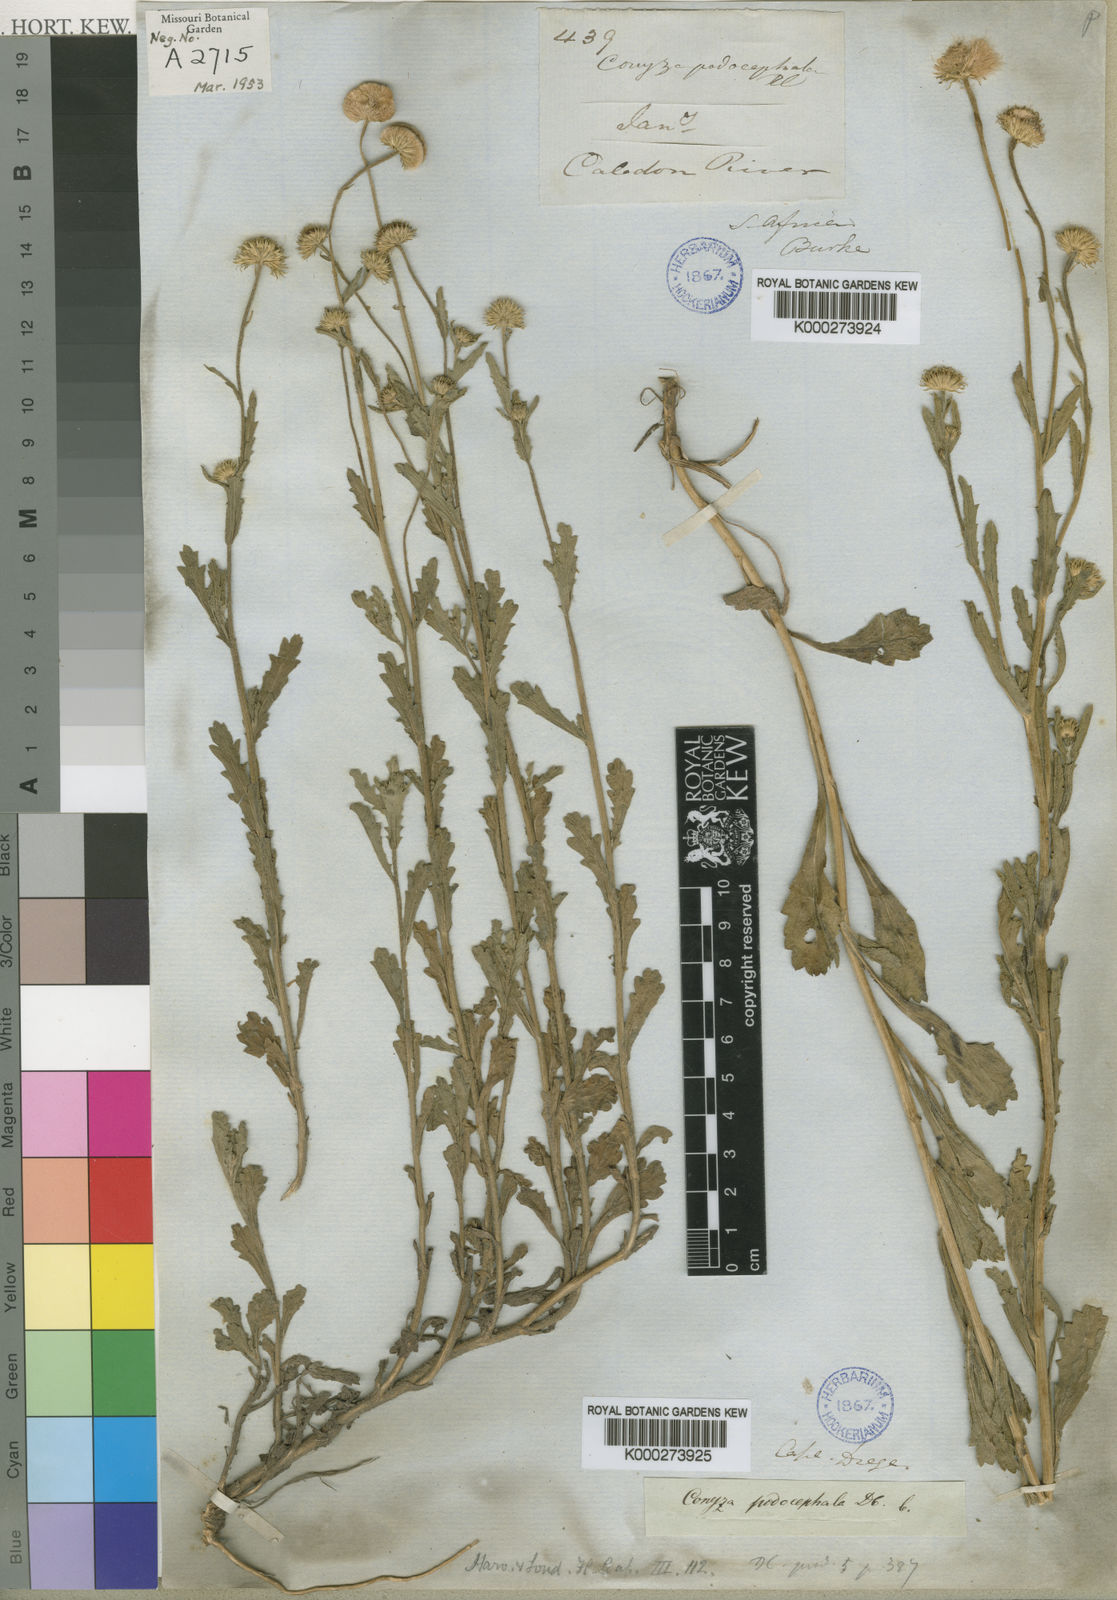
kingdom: Plantae
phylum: Tracheophyta
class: Magnoliopsida
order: Asterales
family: Asteraceae
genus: Nidorella
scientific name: Nidorella podocephala
